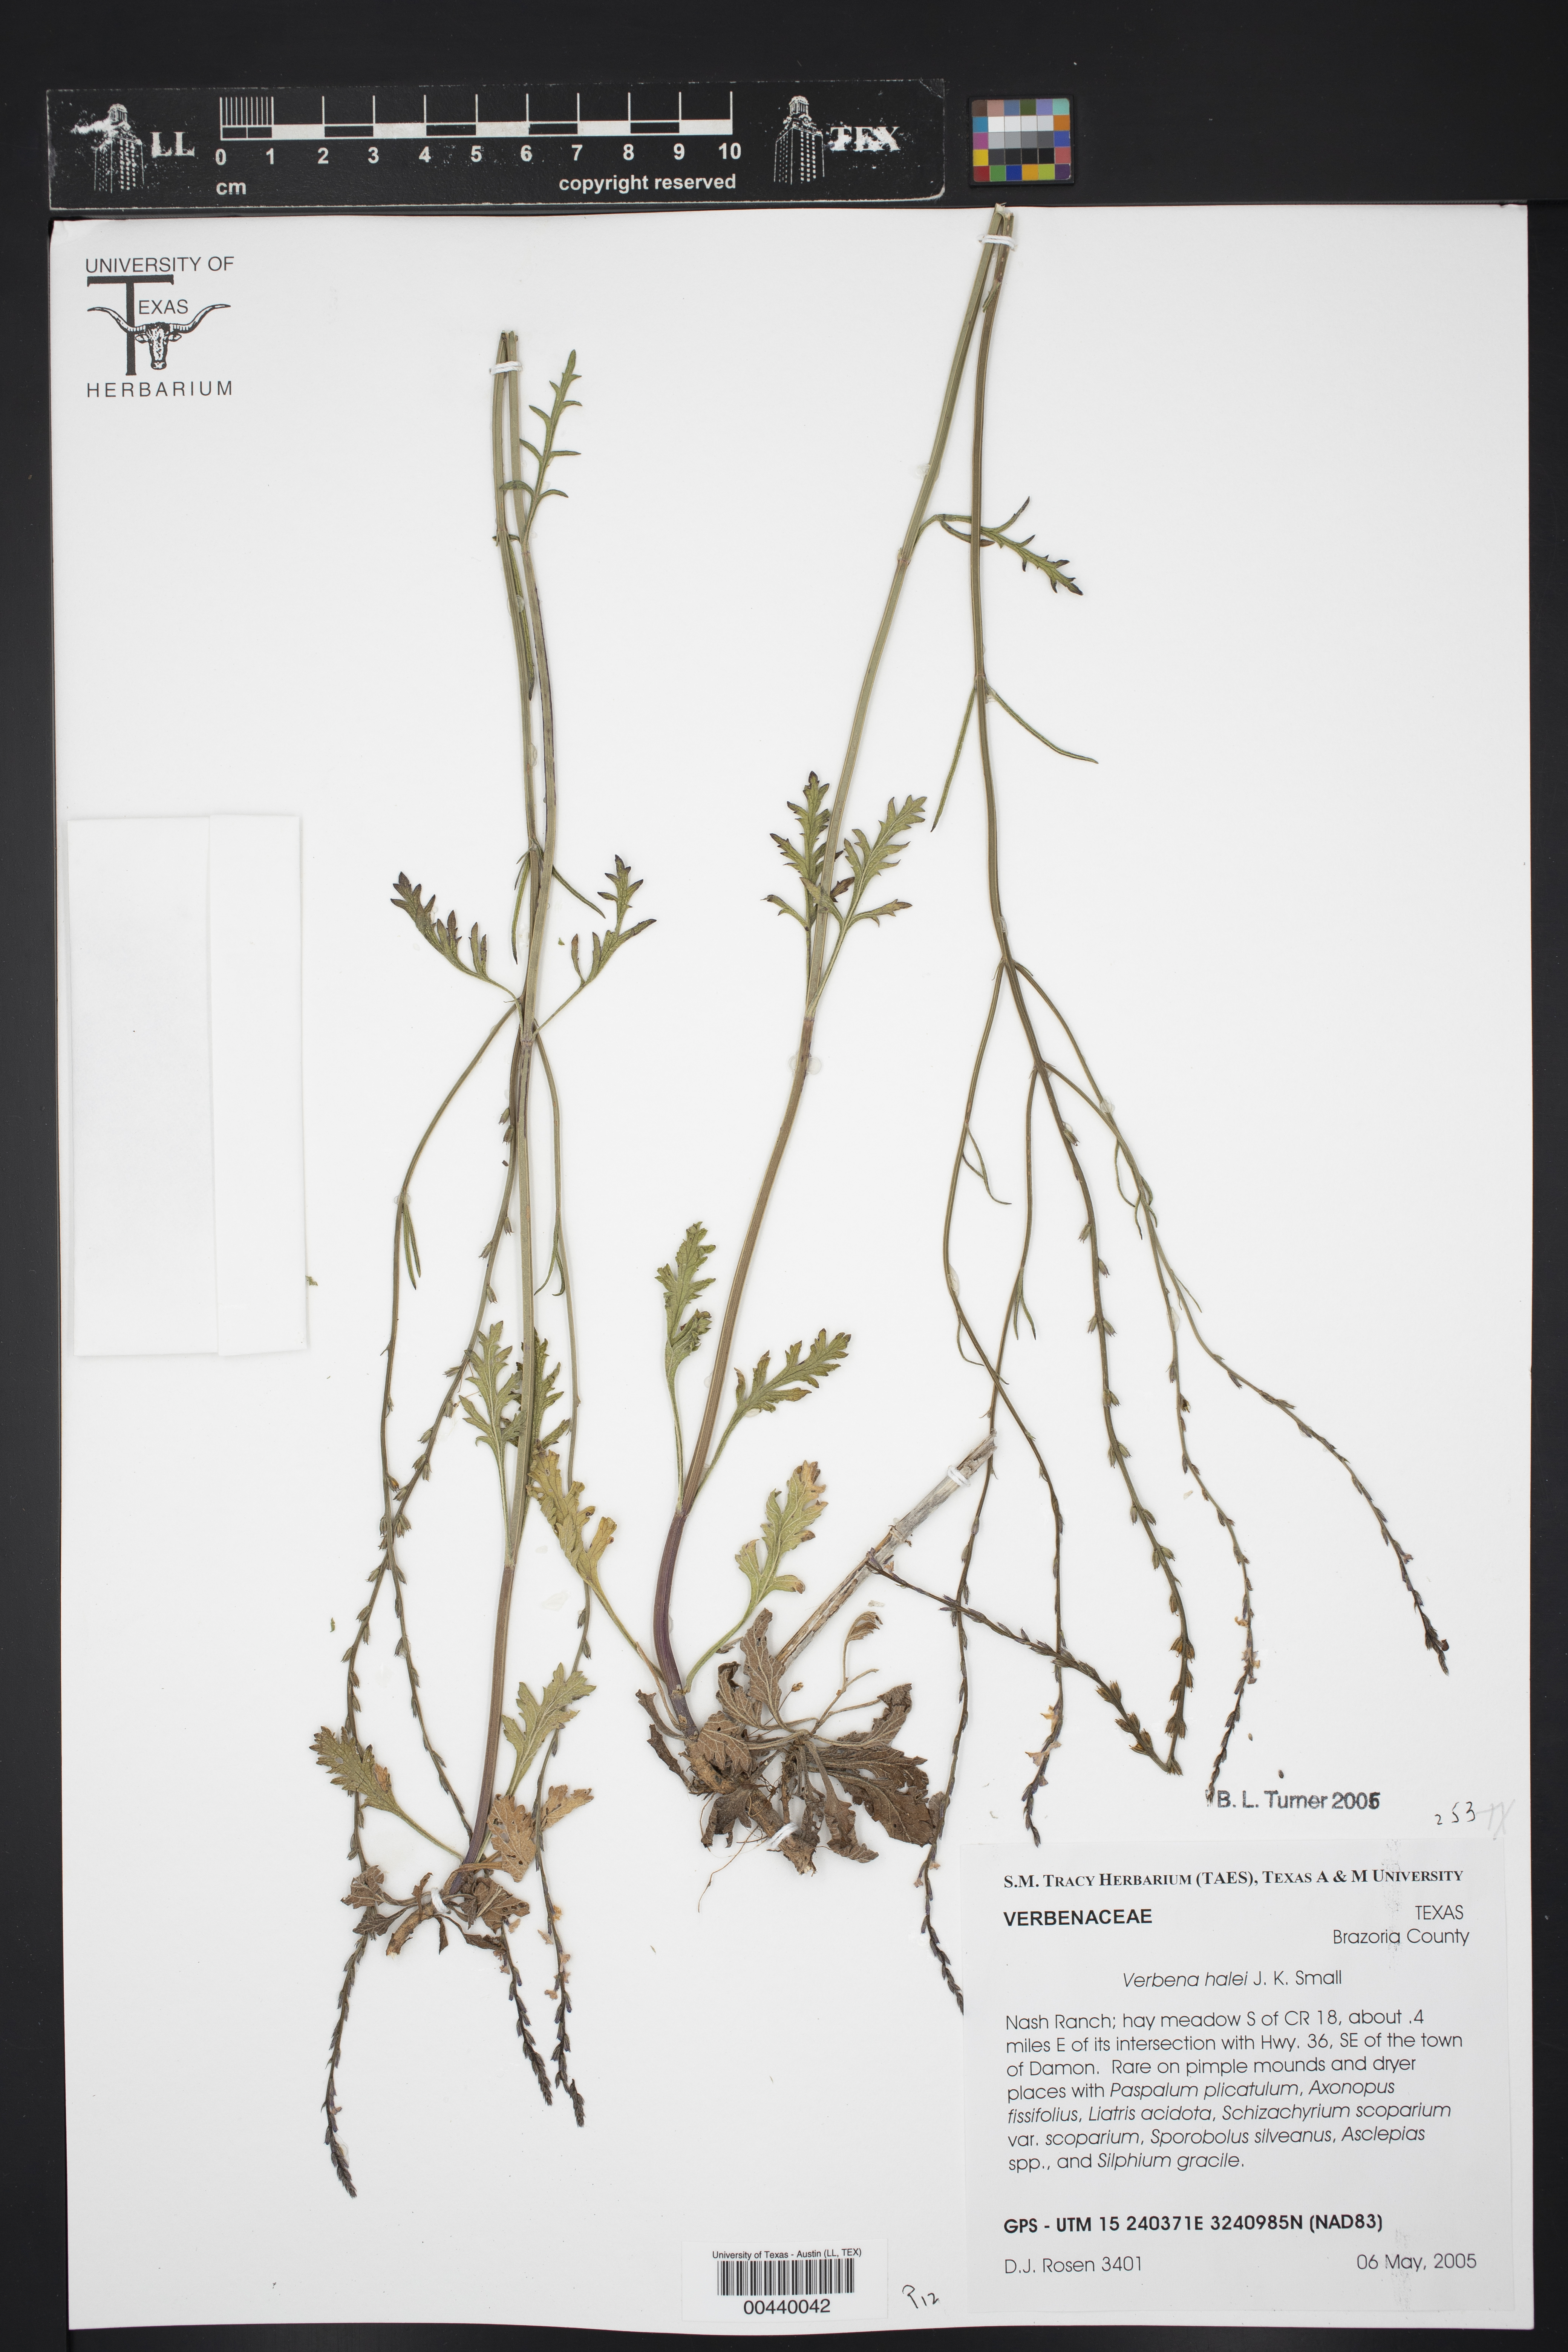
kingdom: Plantae
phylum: Tracheophyta
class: Magnoliopsida
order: Lamiales
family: Verbenaceae
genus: Verbena
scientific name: Verbena halei
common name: Texas vervain
